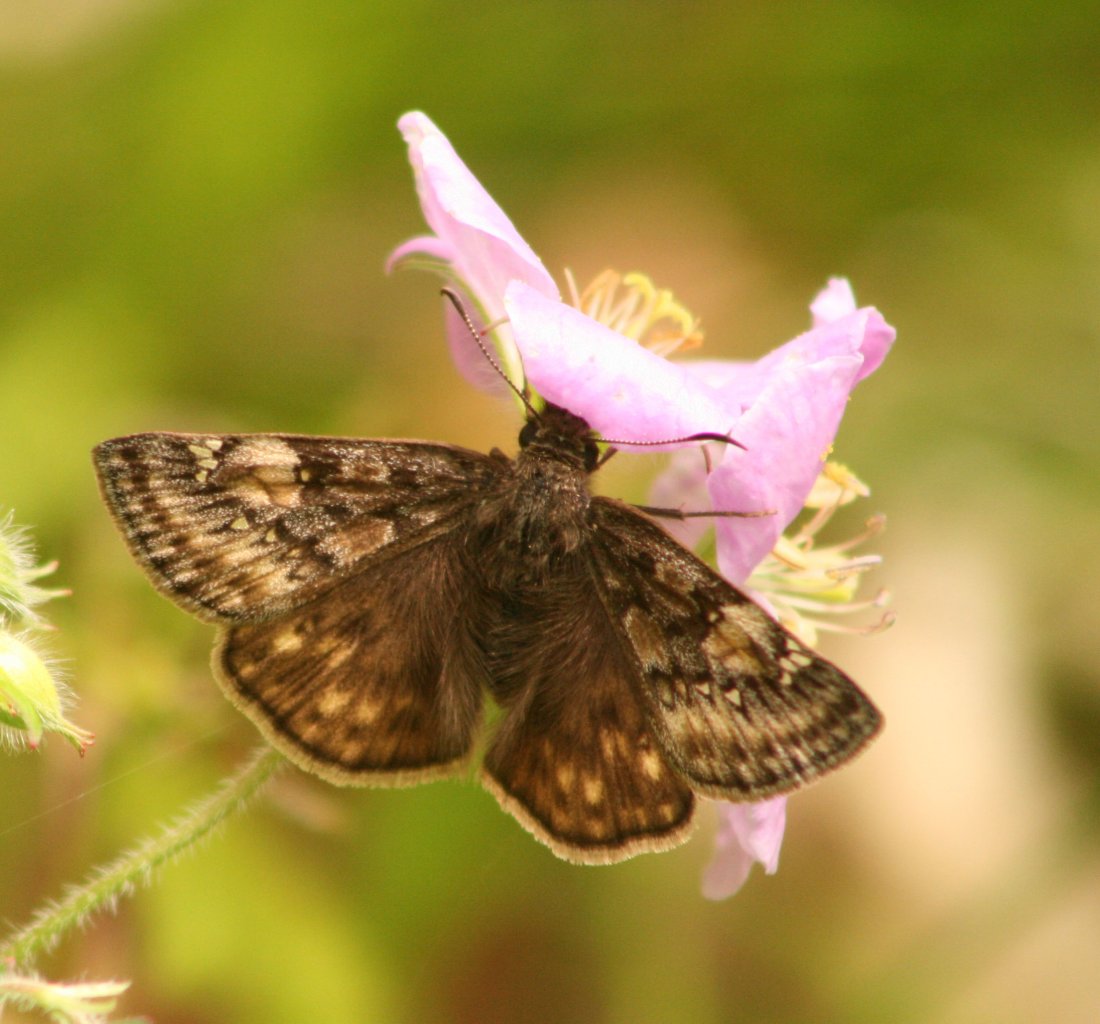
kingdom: Animalia
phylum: Arthropoda
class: Insecta
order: Lepidoptera
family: Hesperiidae
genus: Gesta
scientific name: Gesta
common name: Juvenal's Duskywing
